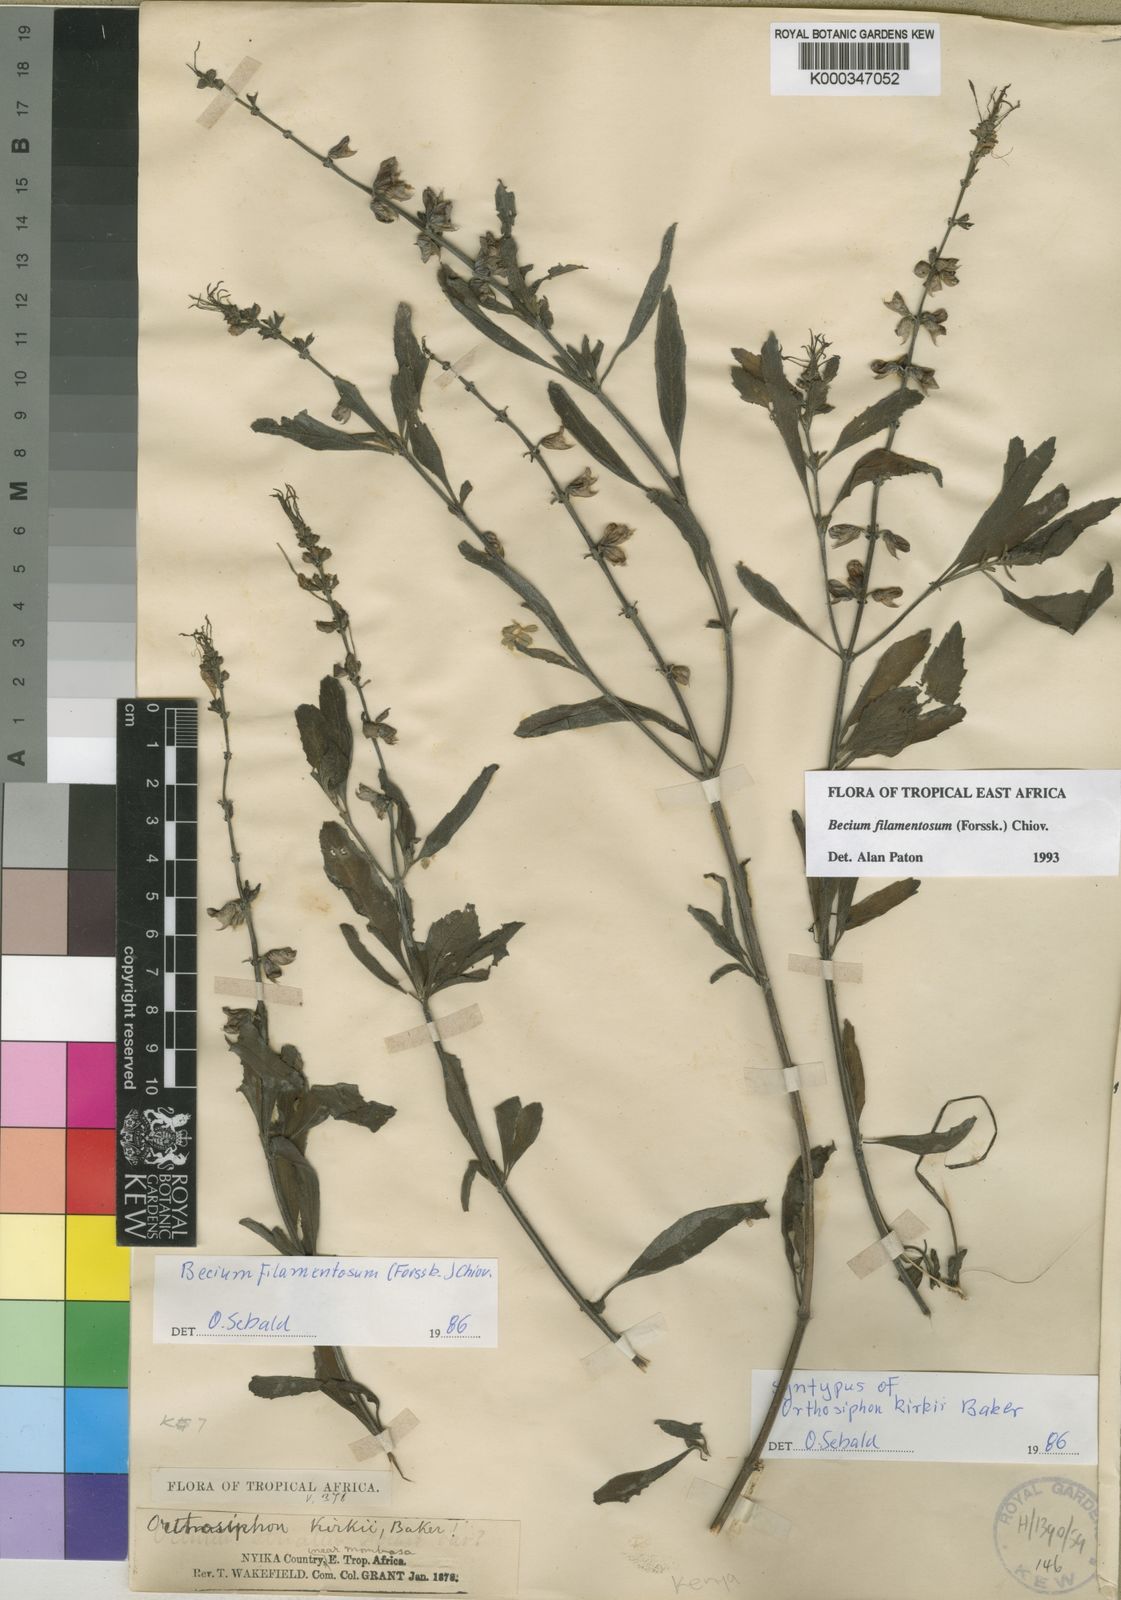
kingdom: Plantae
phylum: Tracheophyta
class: Magnoliopsida
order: Lamiales
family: Lamiaceae
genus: Ocimum
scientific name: Ocimum filamentosum
